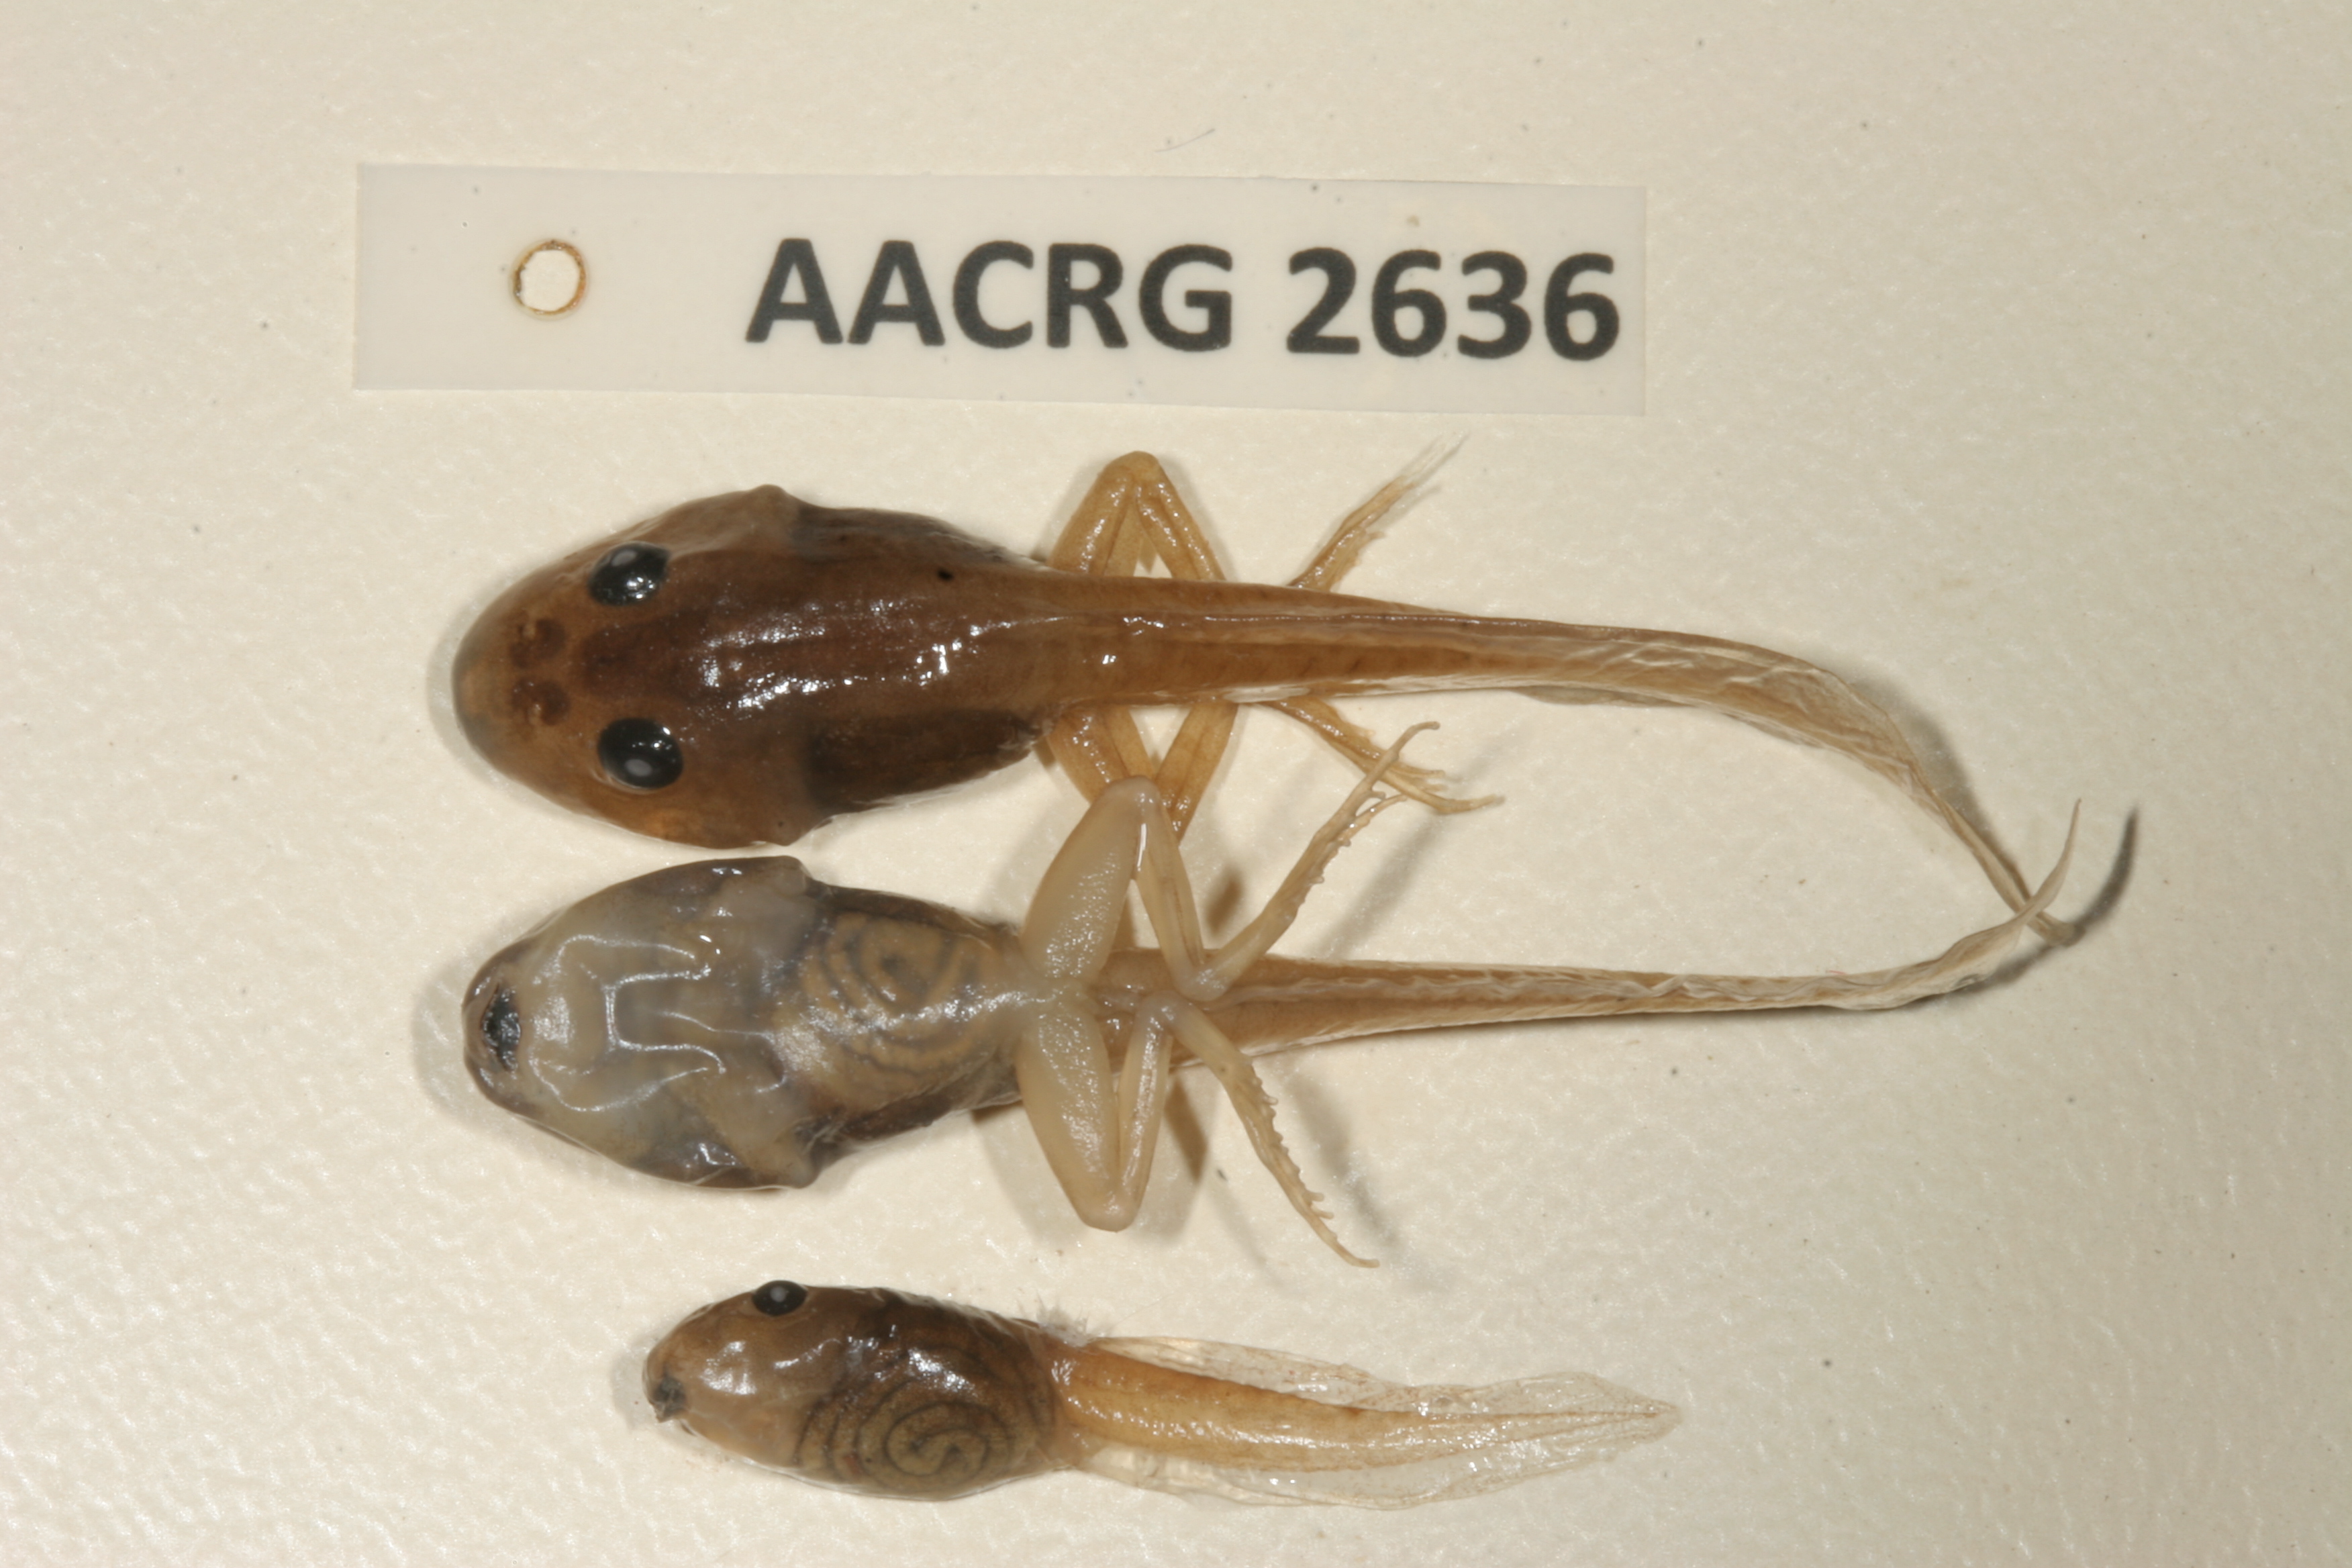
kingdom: Animalia
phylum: Chordata
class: Amphibia
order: Anura
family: Pyxicephalidae
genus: Strongylopus
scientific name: Strongylopus grayii
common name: Gray's stream frog
